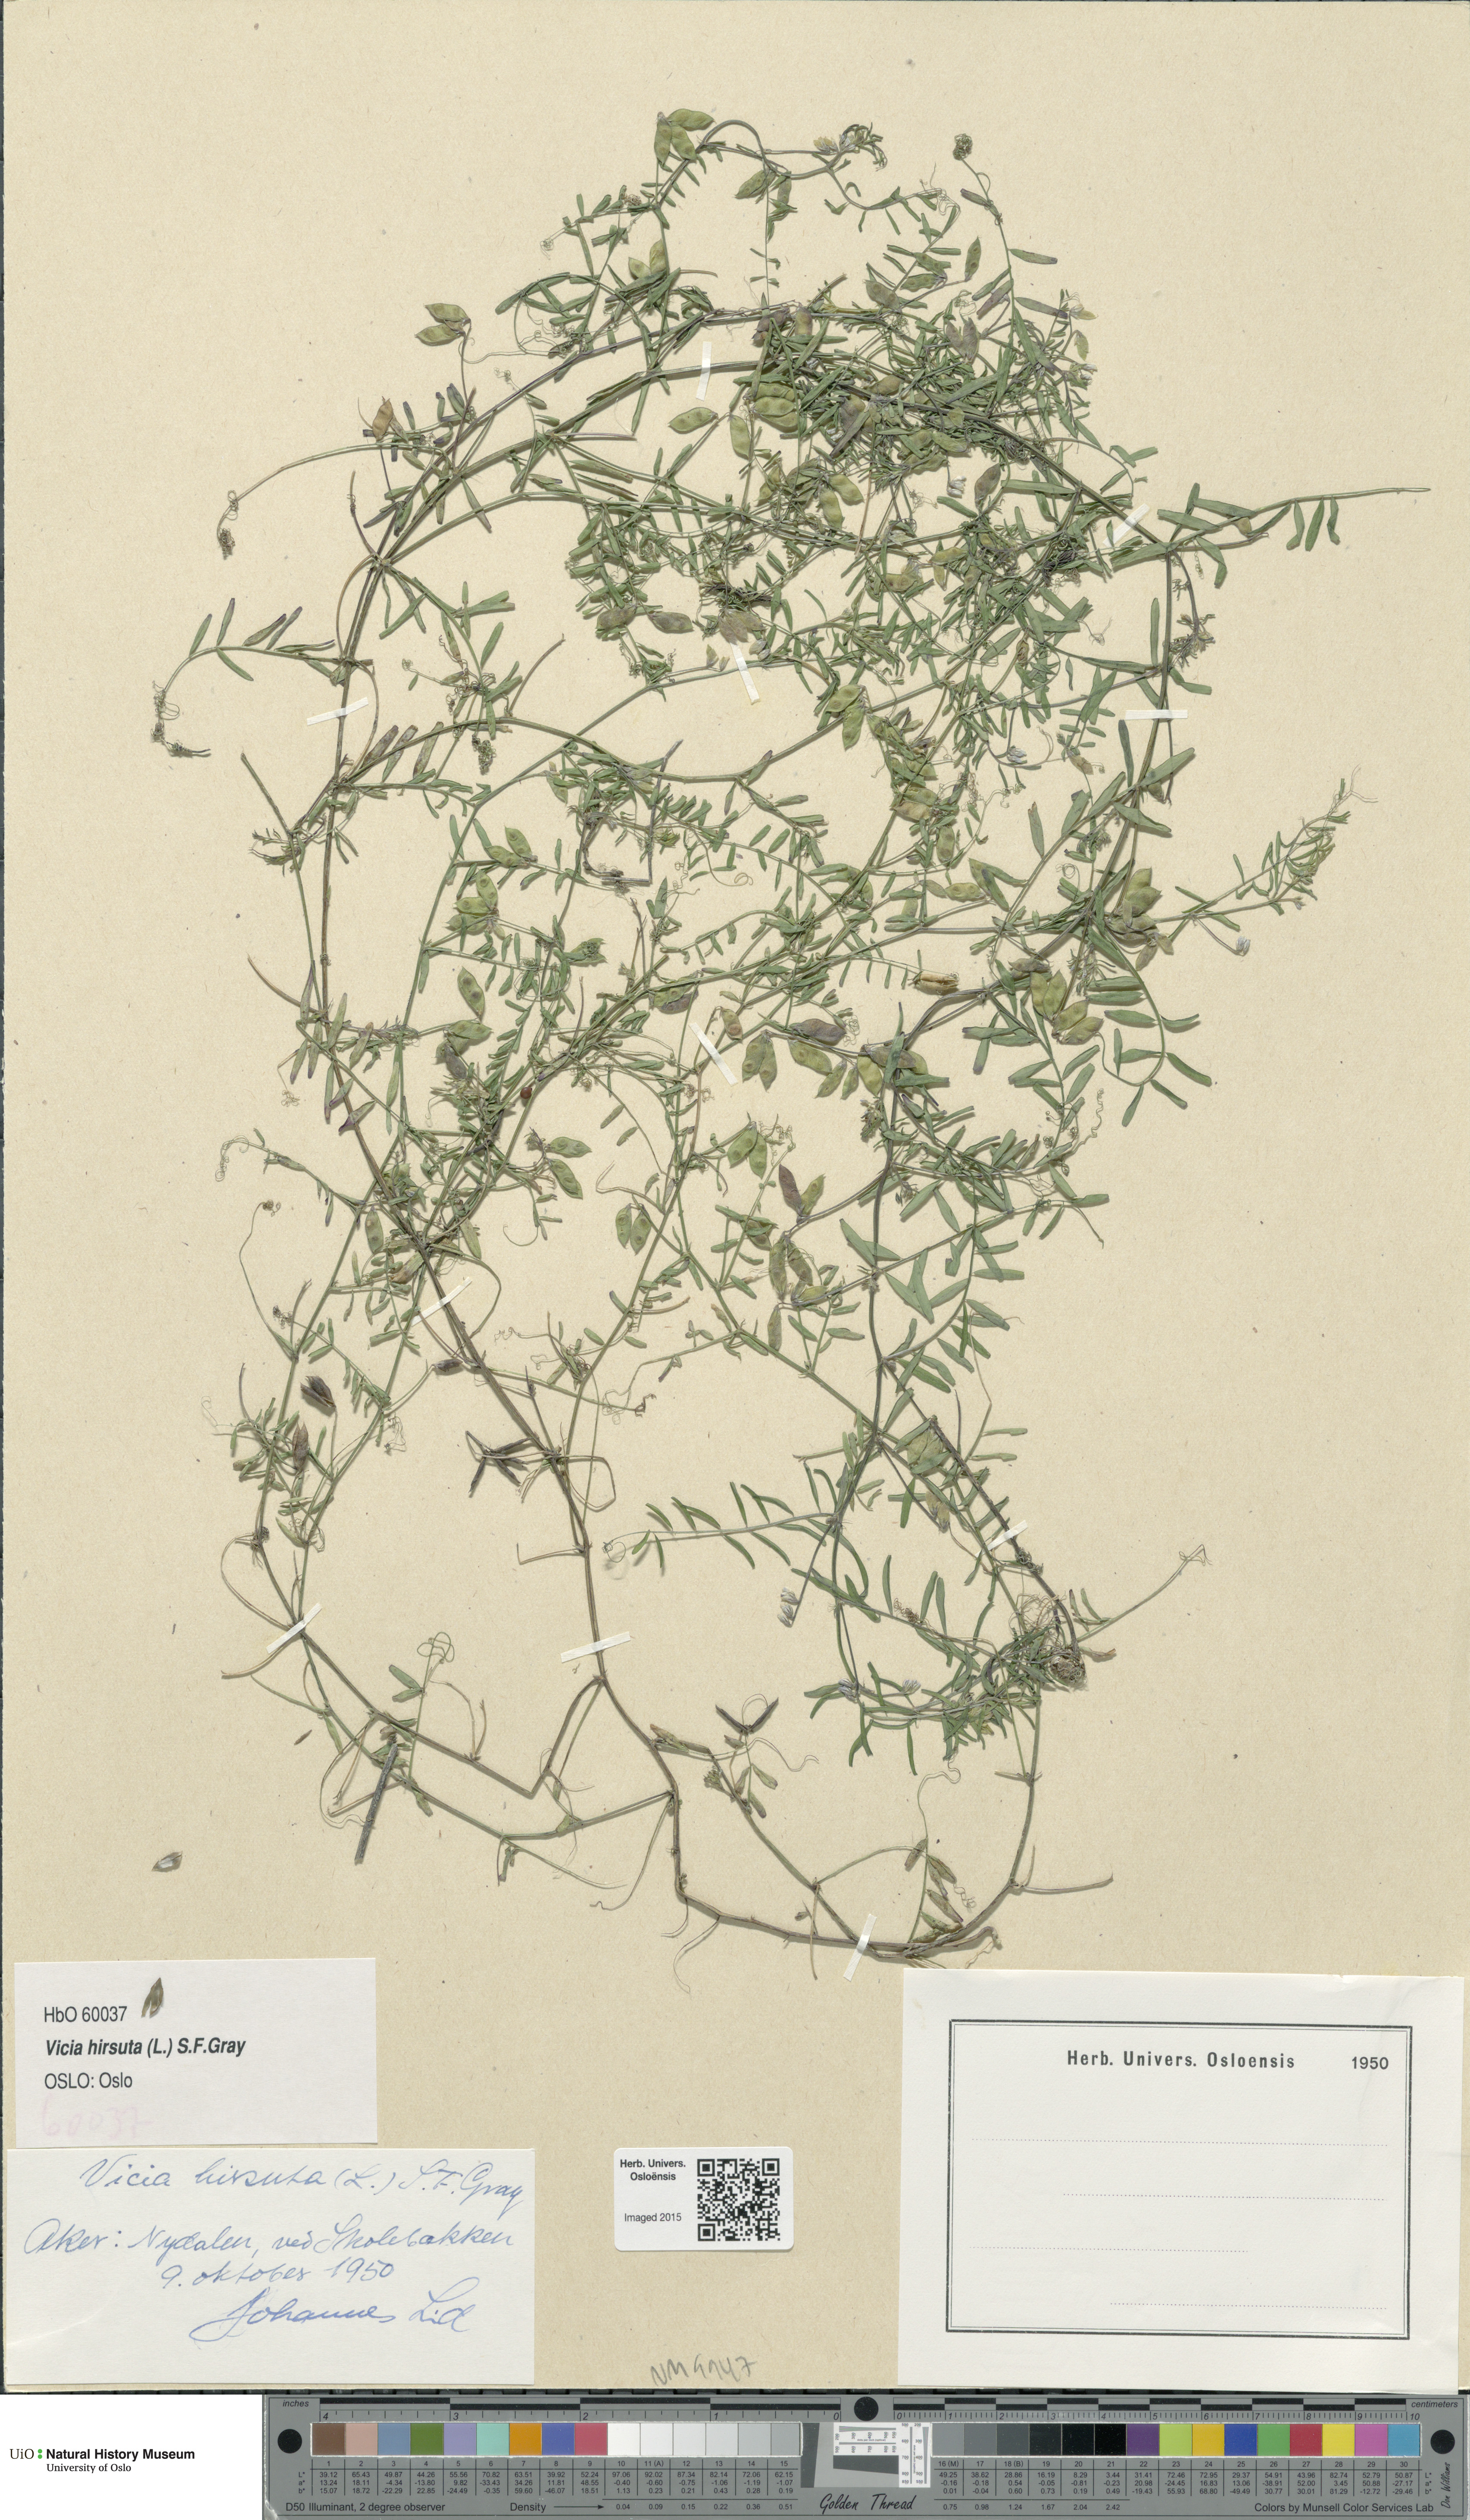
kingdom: Plantae
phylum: Tracheophyta
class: Magnoliopsida
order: Fabales
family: Fabaceae
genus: Vicia
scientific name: Vicia hirsuta
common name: Tiny vetch
